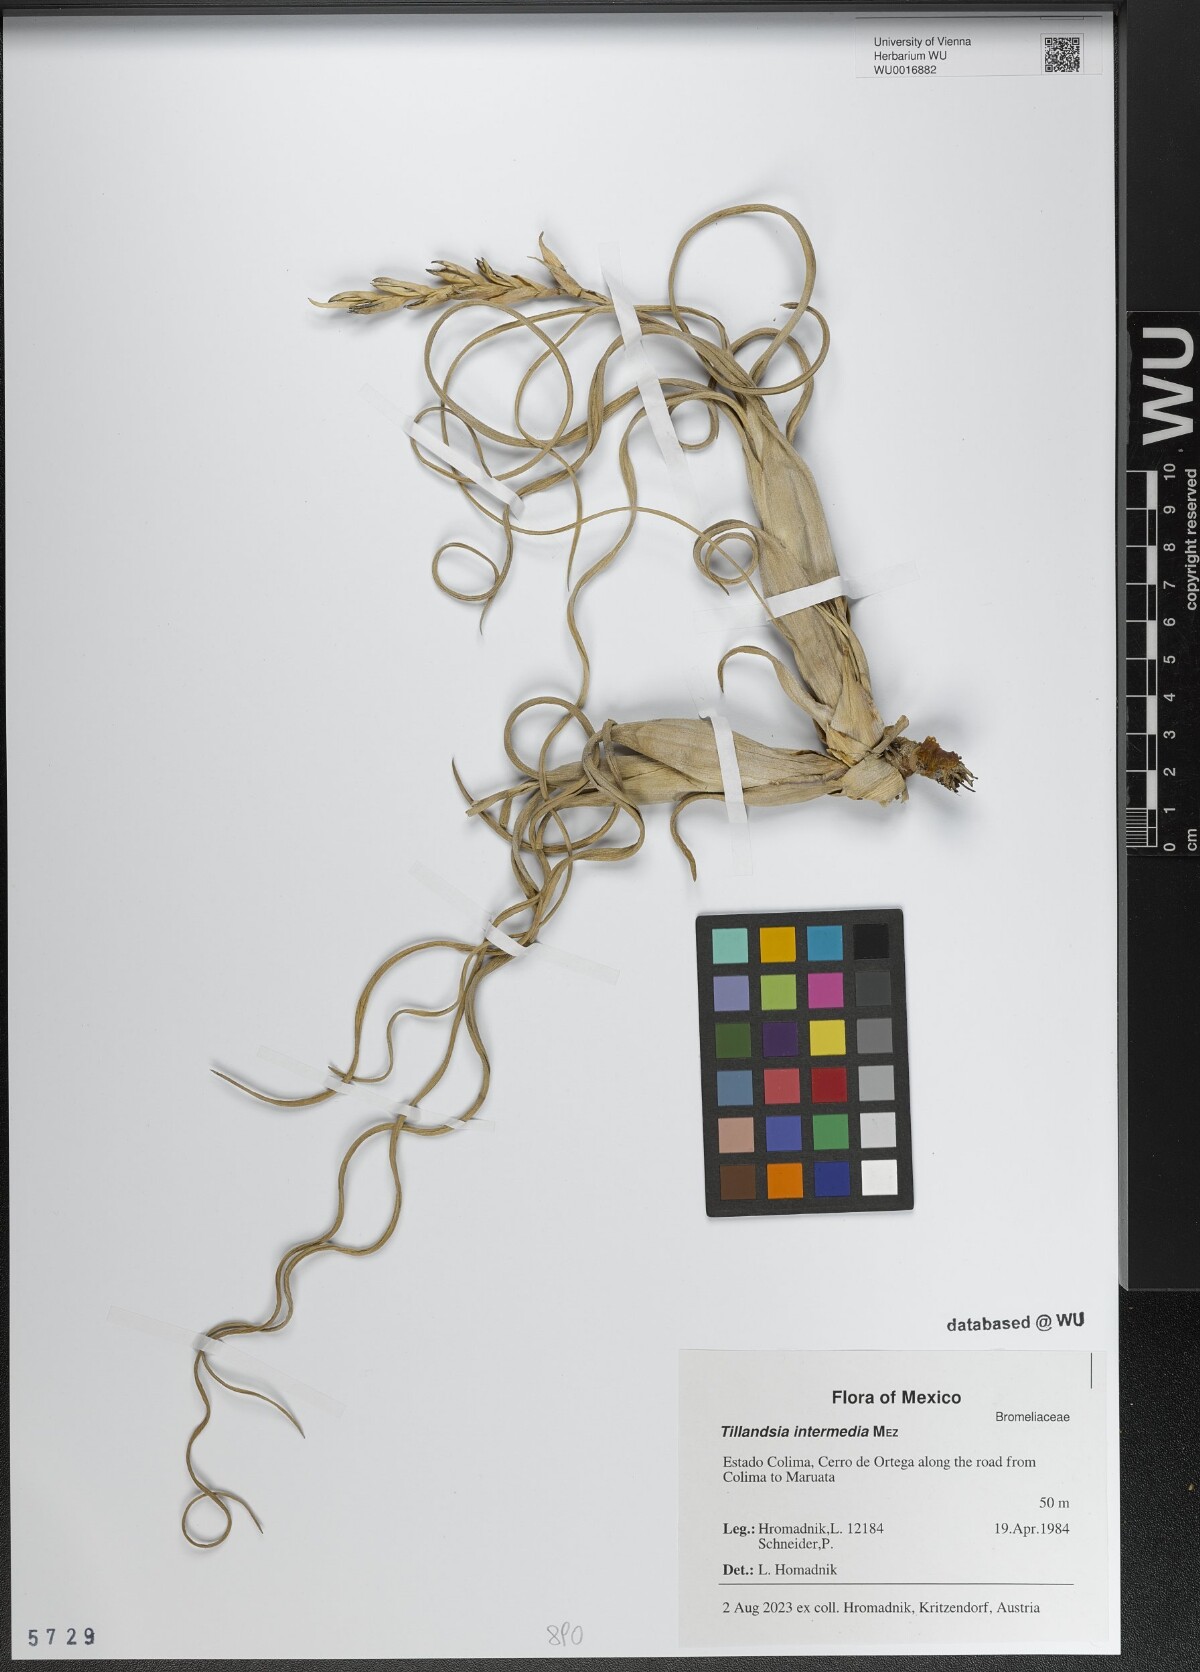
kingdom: Plantae
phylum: Tracheophyta
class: Liliopsida
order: Poales
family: Bromeliaceae
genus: Tillandsia
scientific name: Tillandsia intermedia
